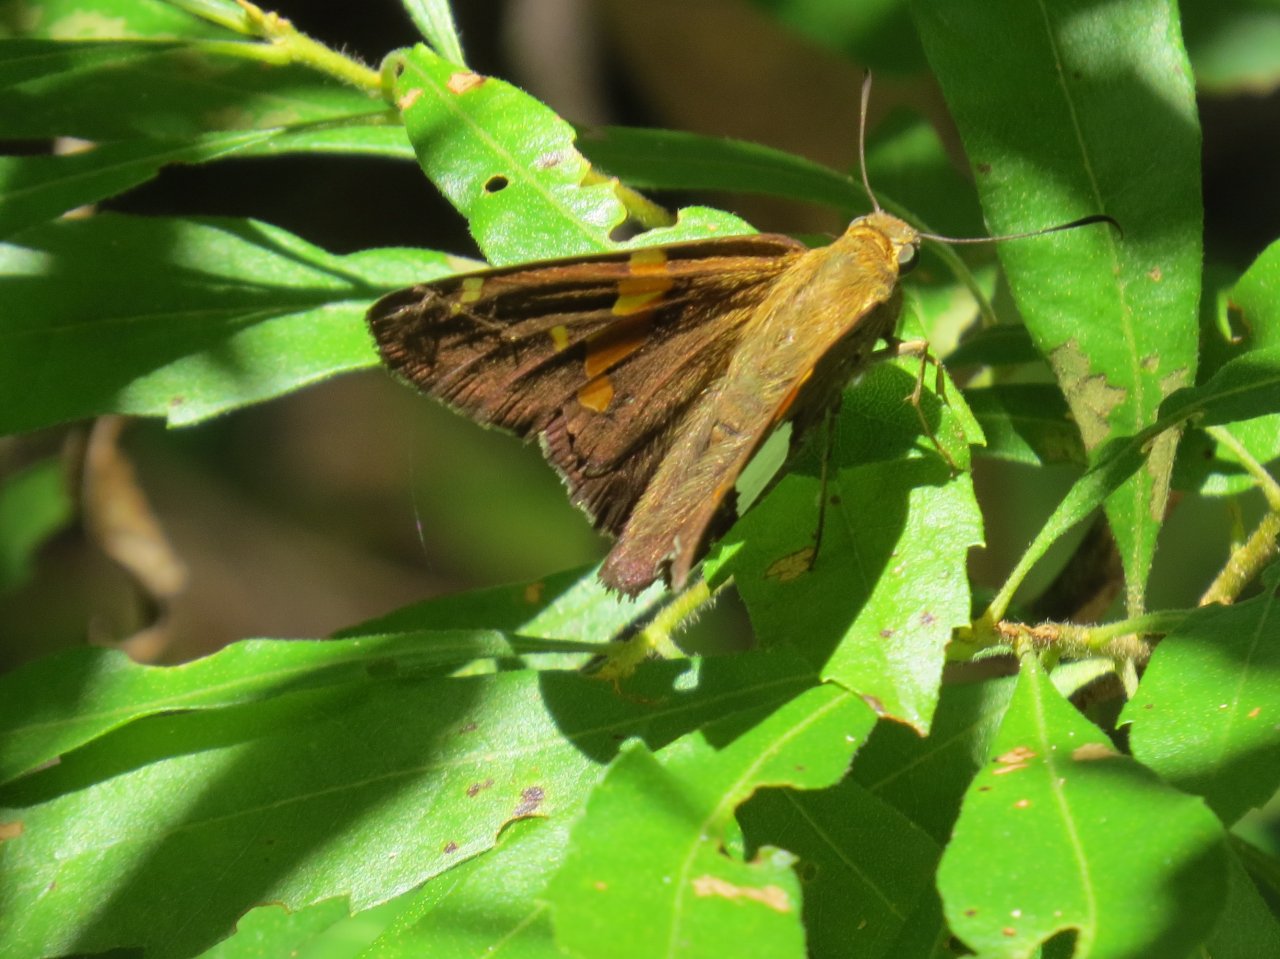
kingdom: Animalia
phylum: Arthropoda
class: Insecta
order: Lepidoptera
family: Hesperiidae
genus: Epargyreus
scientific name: Epargyreus clarus
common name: Silver-spotted Skipper
